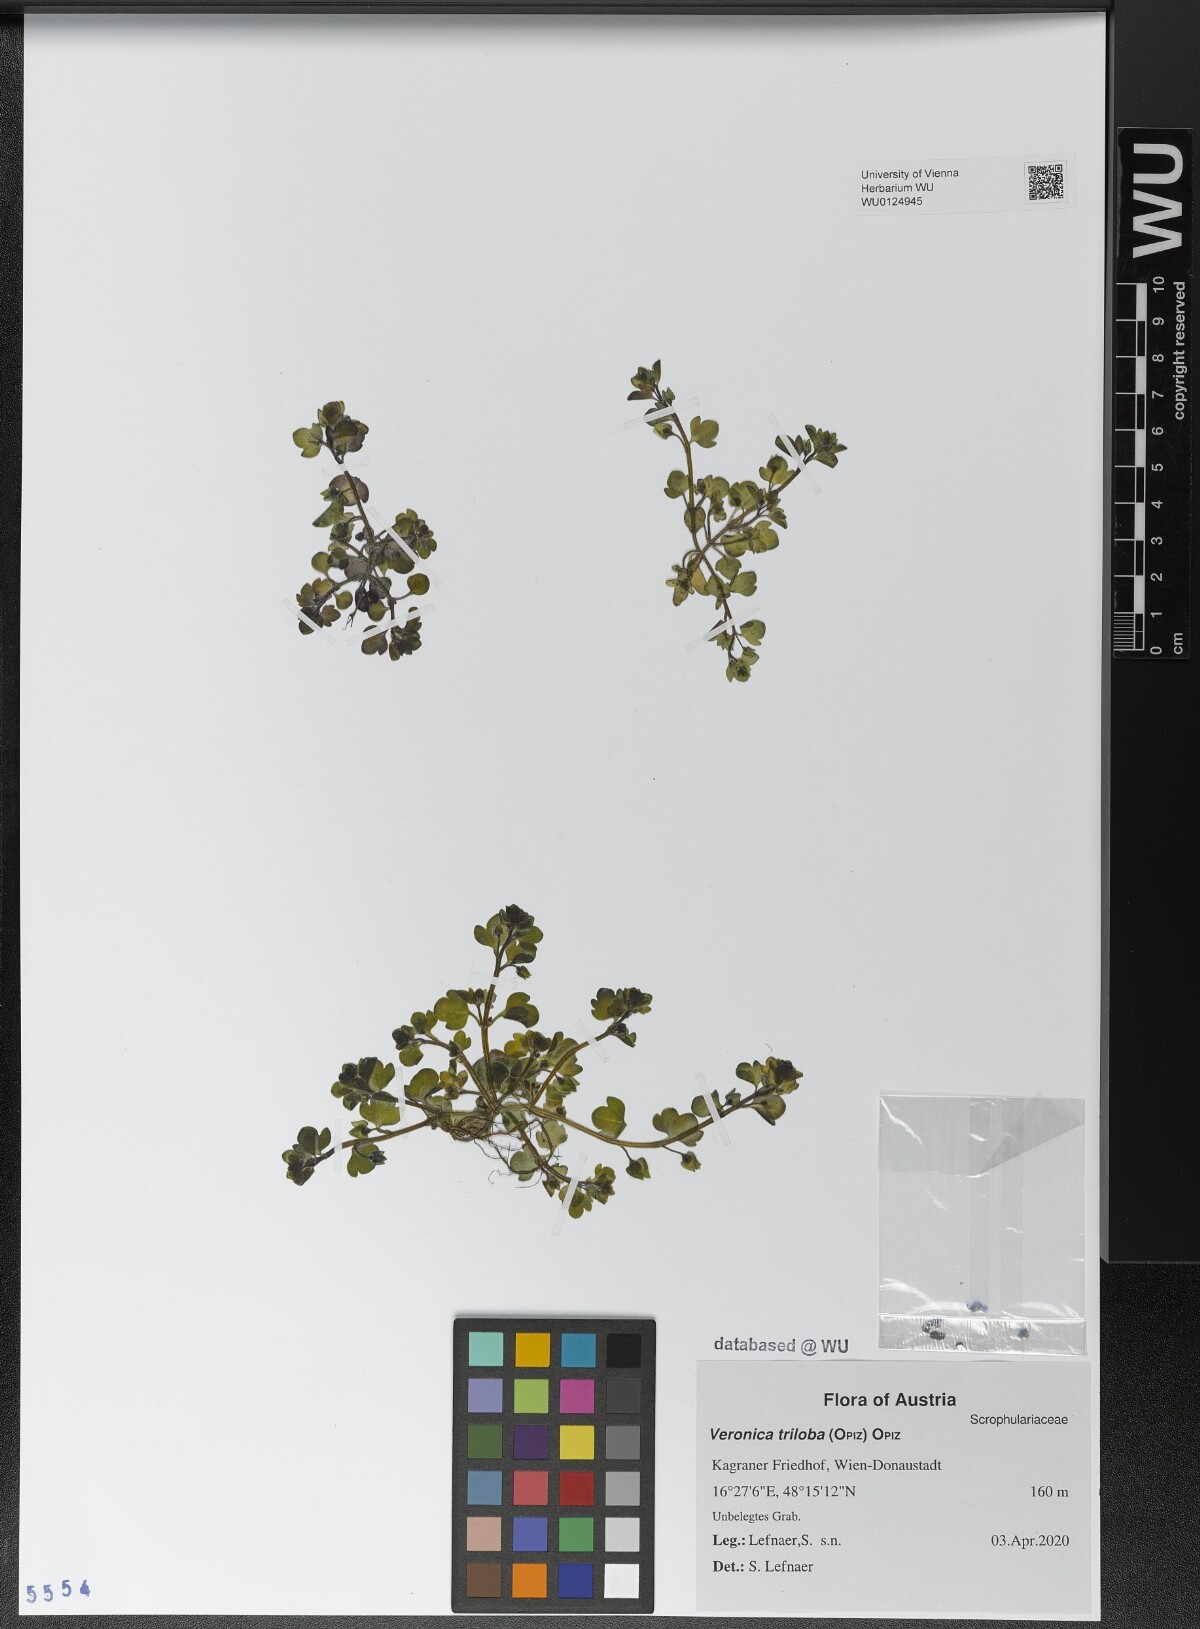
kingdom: Plantae
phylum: Tracheophyta
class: Magnoliopsida
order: Lamiales
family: Plantaginaceae
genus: Veronica
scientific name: Veronica triloba
